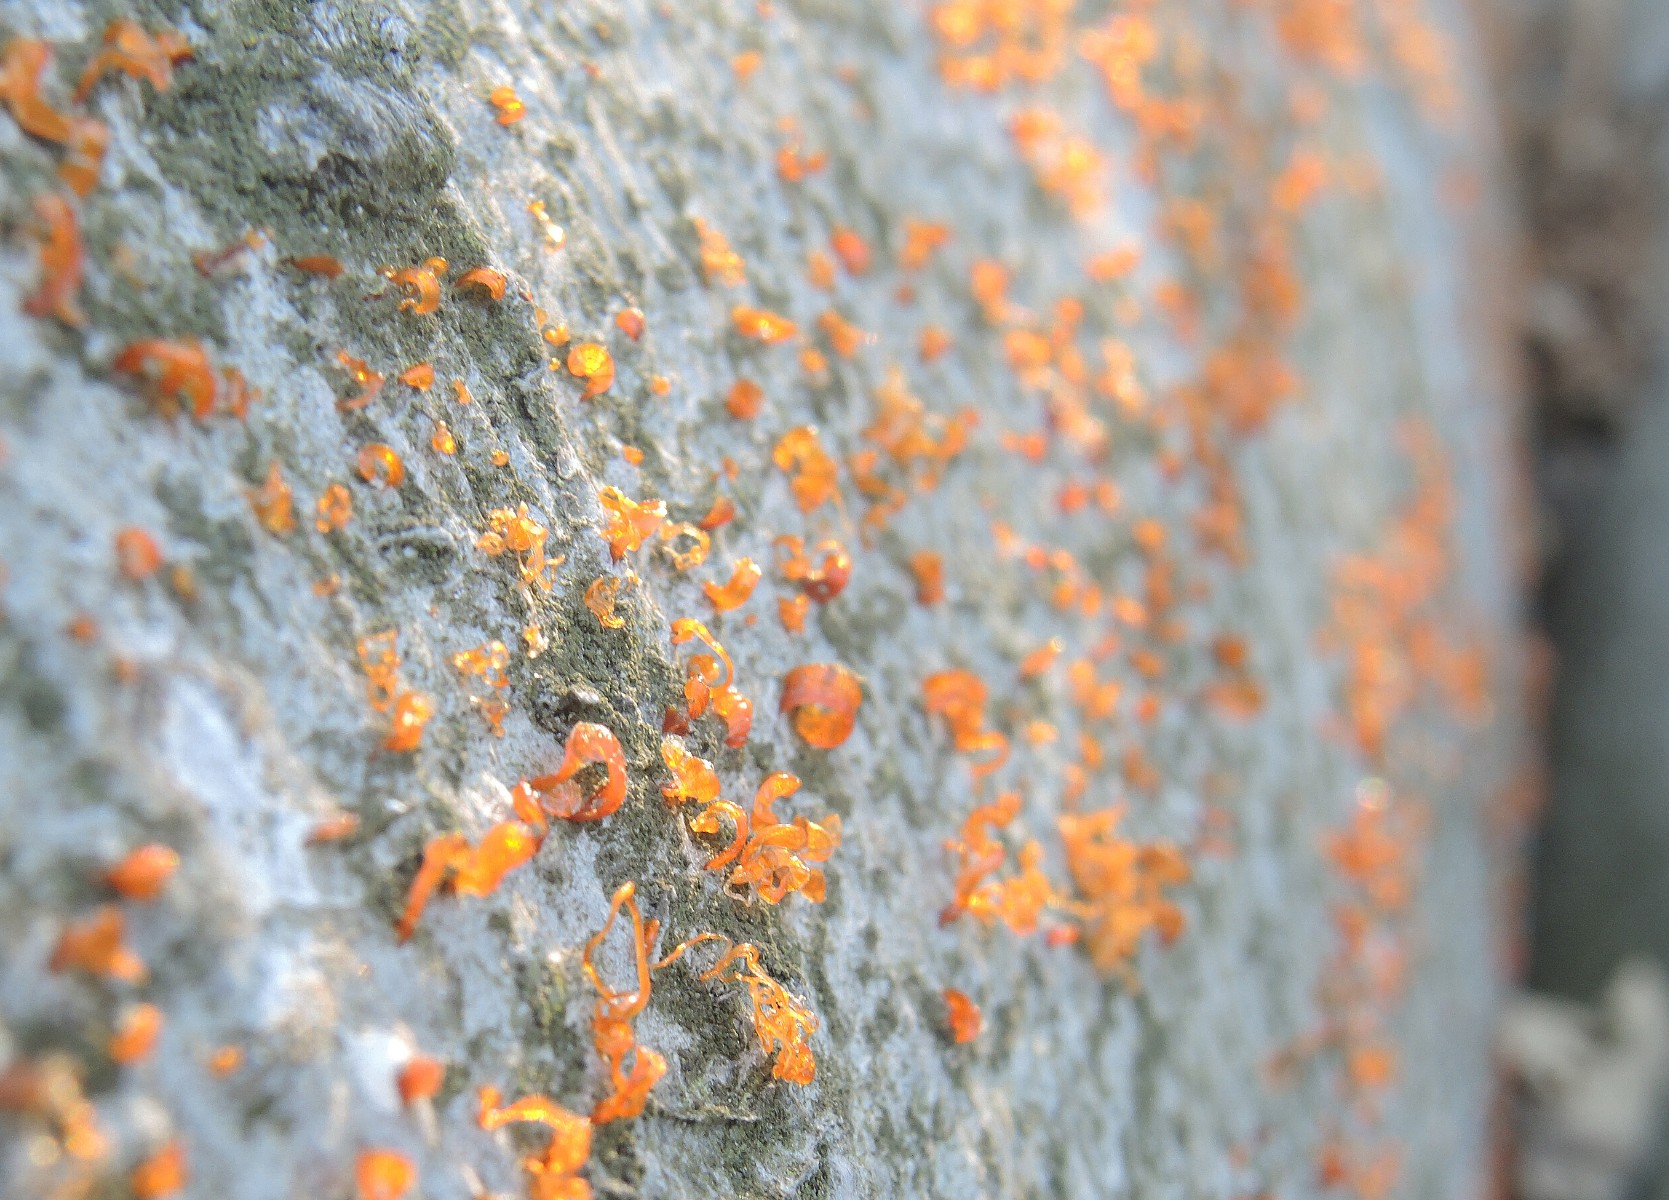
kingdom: Fungi
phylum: Ascomycota
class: Sordariomycetes
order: Xylariales
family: Diatrypaceae
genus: Eutypella
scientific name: Eutypella quaternata
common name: bøge-korsprik
